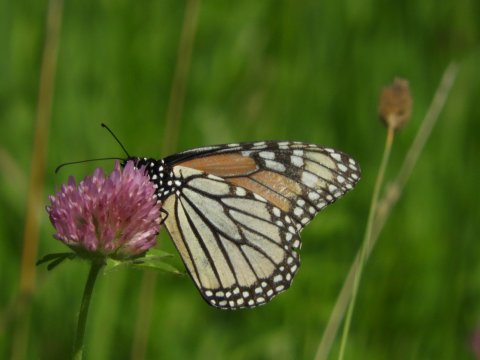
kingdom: Animalia
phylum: Arthropoda
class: Insecta
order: Lepidoptera
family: Nymphalidae
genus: Danaus
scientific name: Danaus plexippus
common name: Monarch
